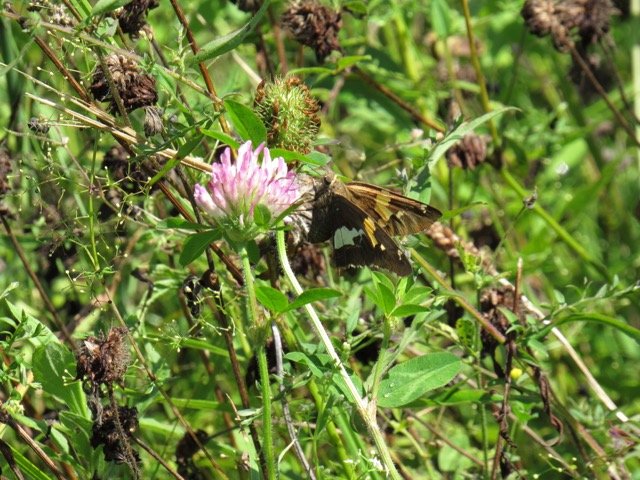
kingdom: Animalia
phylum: Arthropoda
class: Insecta
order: Lepidoptera
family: Hesperiidae
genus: Epargyreus
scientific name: Epargyreus clarus
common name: Silver-spotted Skipper
